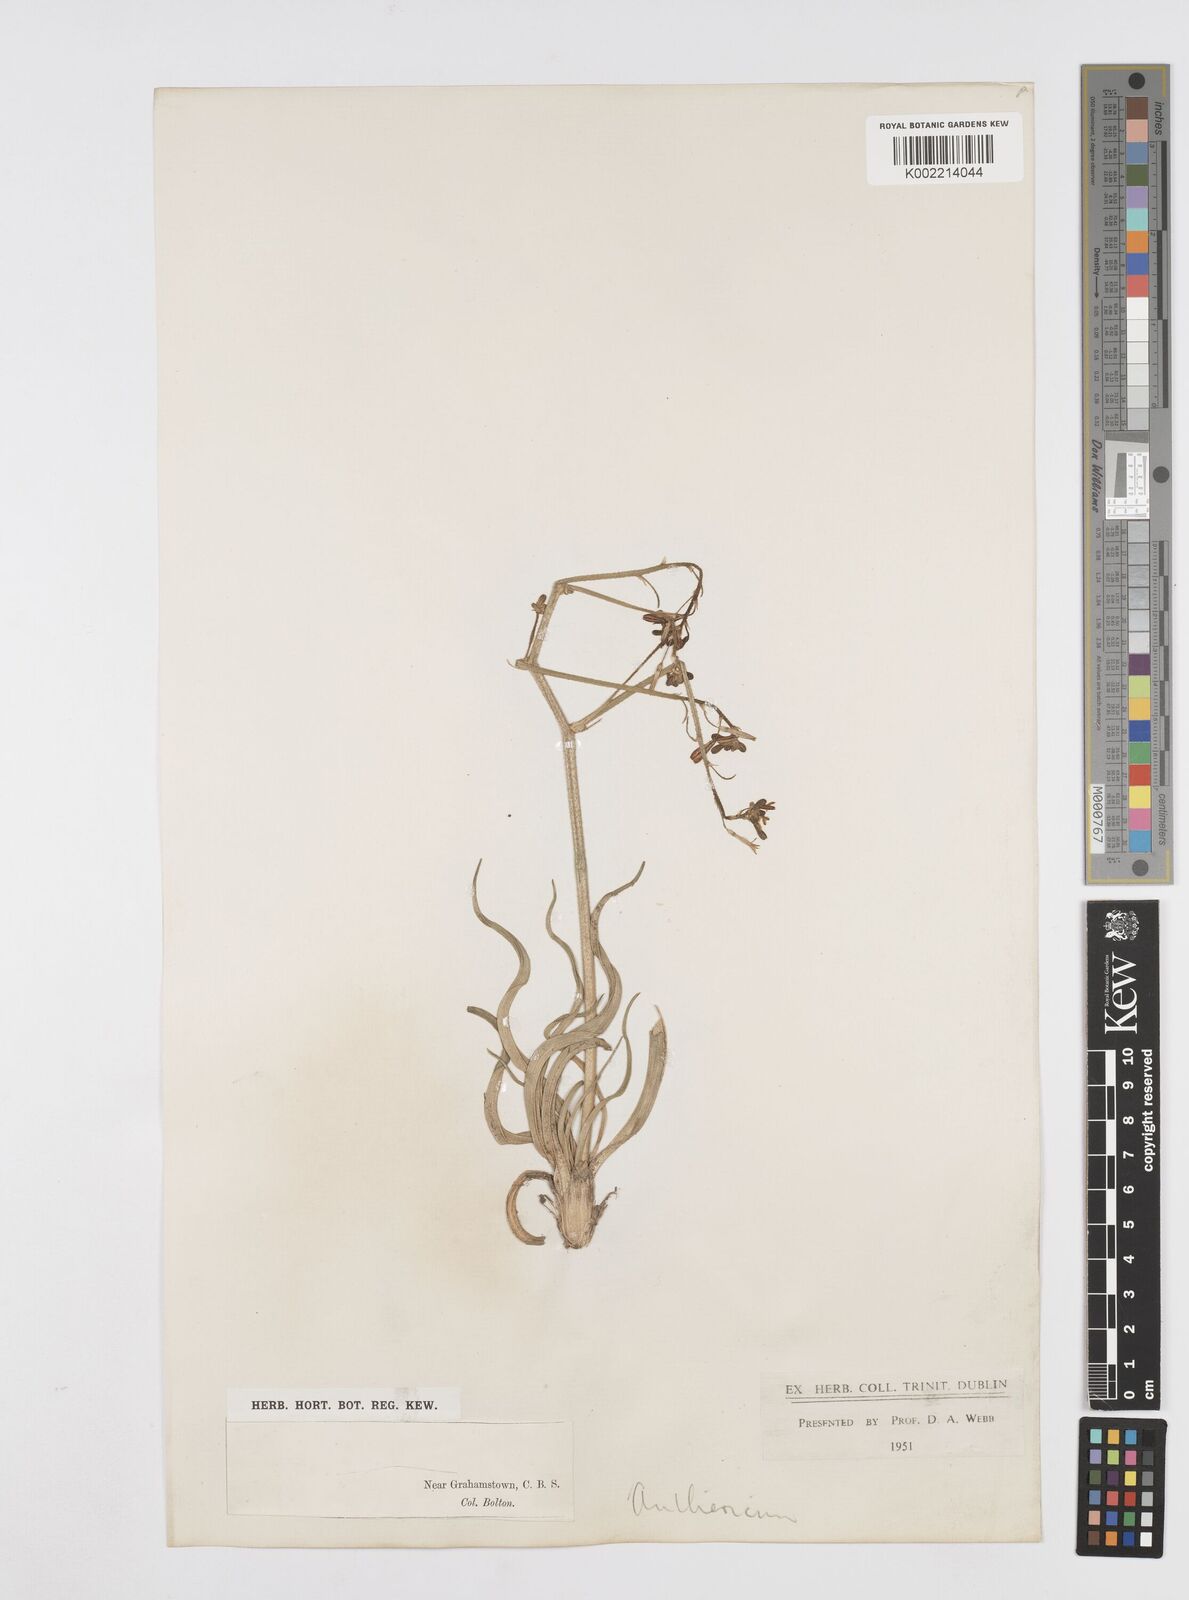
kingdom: Plantae
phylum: Tracheophyta
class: Liliopsida
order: Asparagales
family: Asphodelaceae
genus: Trachyandra
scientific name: Trachyandra
